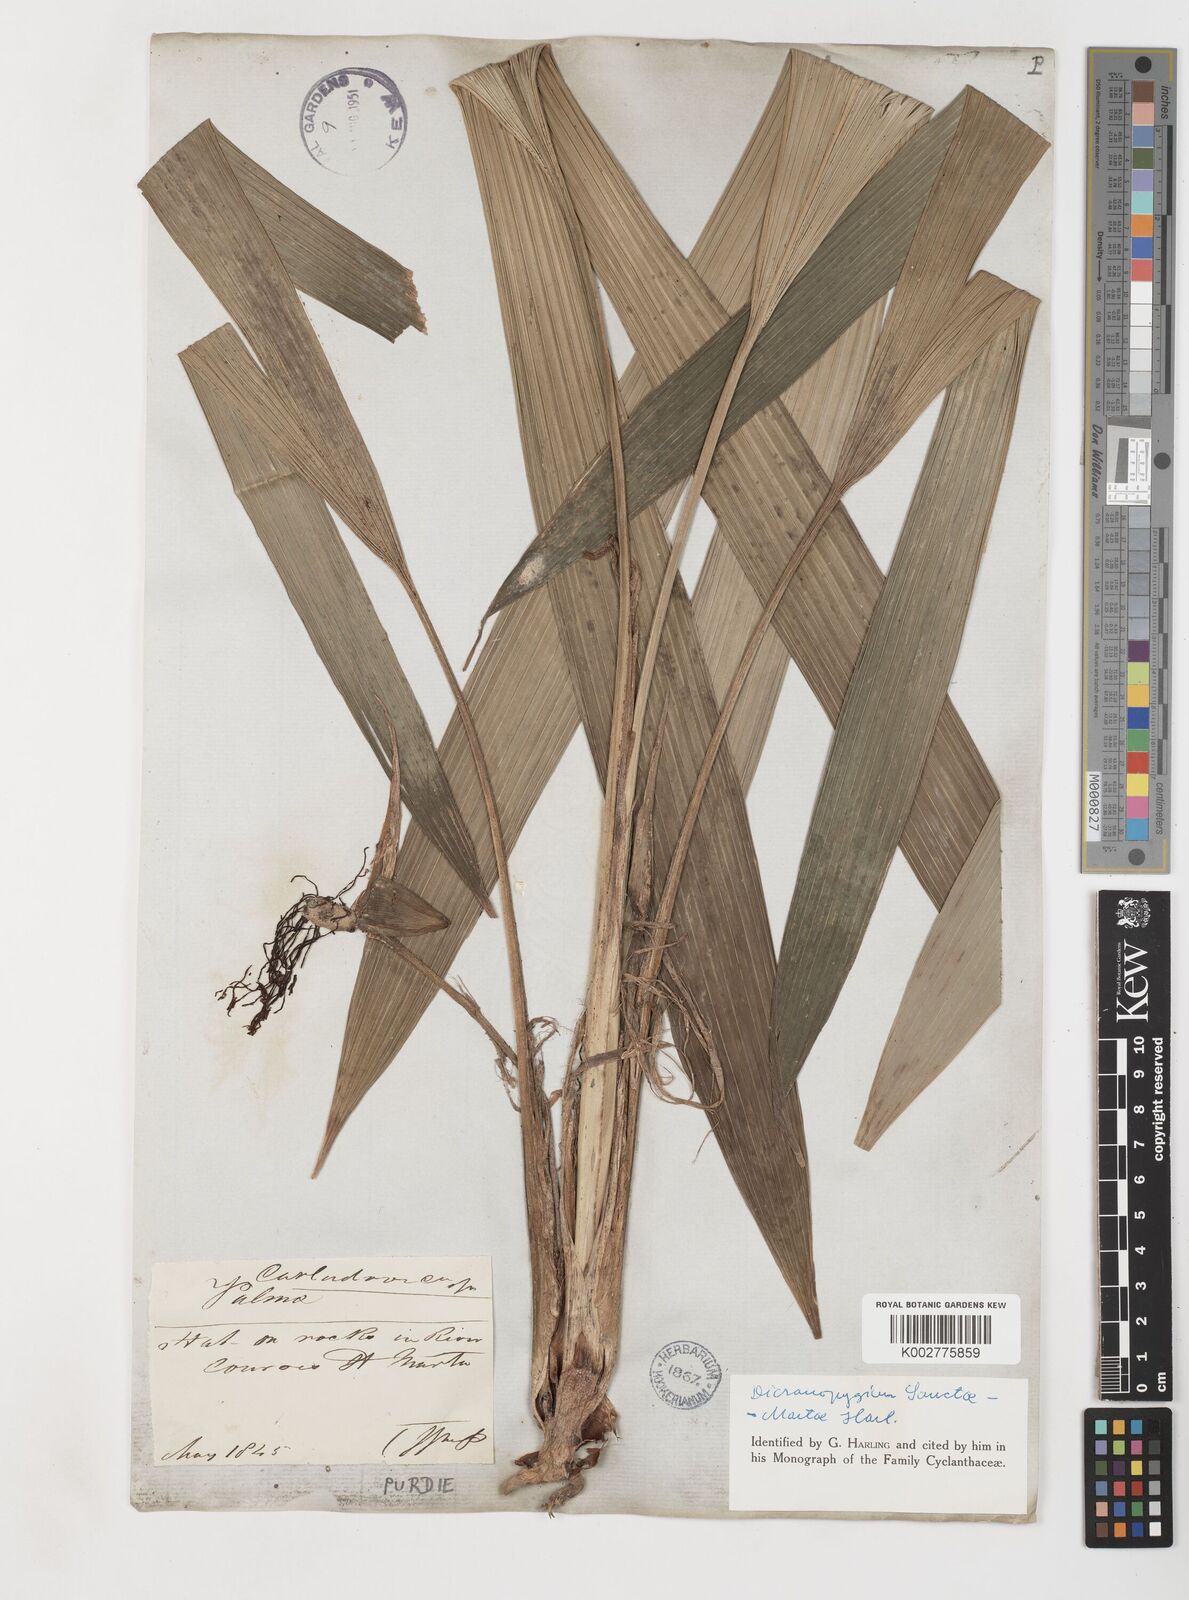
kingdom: Plantae
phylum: Tracheophyta
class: Liliopsida
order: Pandanales
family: Cyclanthaceae
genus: Dicranopygium
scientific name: Dicranopygium sanctae-martae
